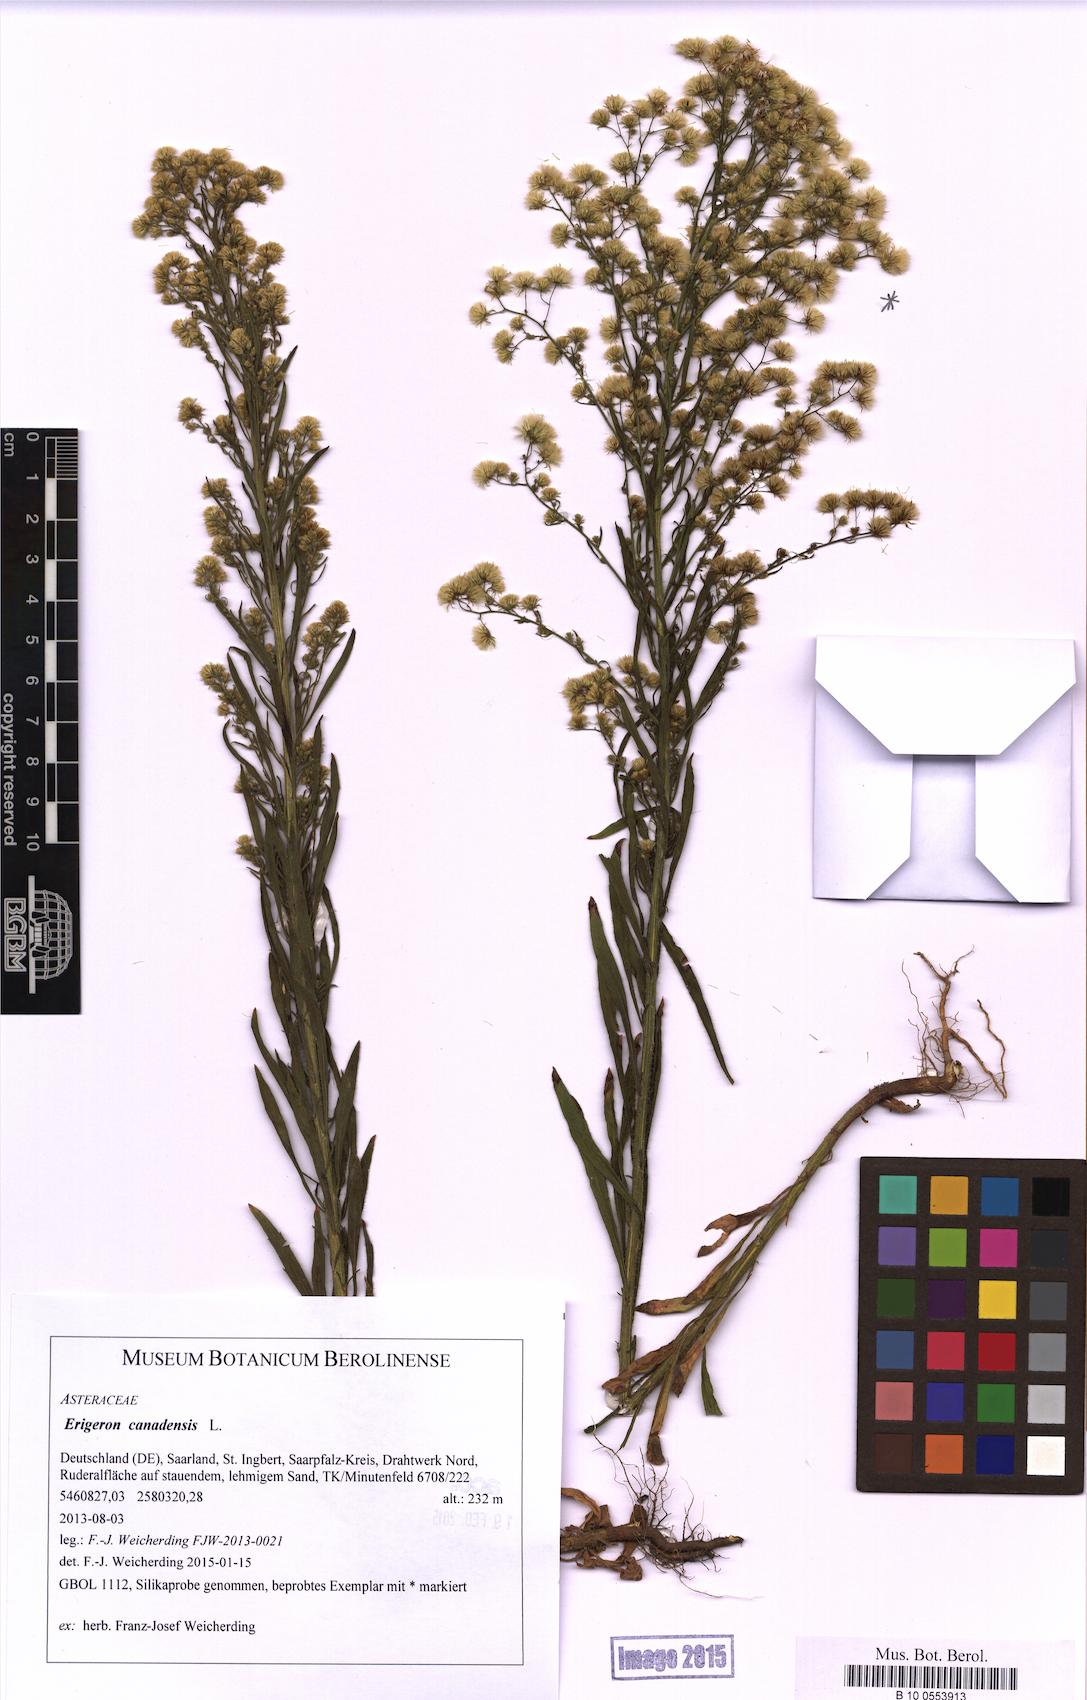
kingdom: Plantae
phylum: Tracheophyta
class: Magnoliopsida
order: Asterales
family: Asteraceae
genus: Erigeron
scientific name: Erigeron canadensis
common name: Canadian fleabane
